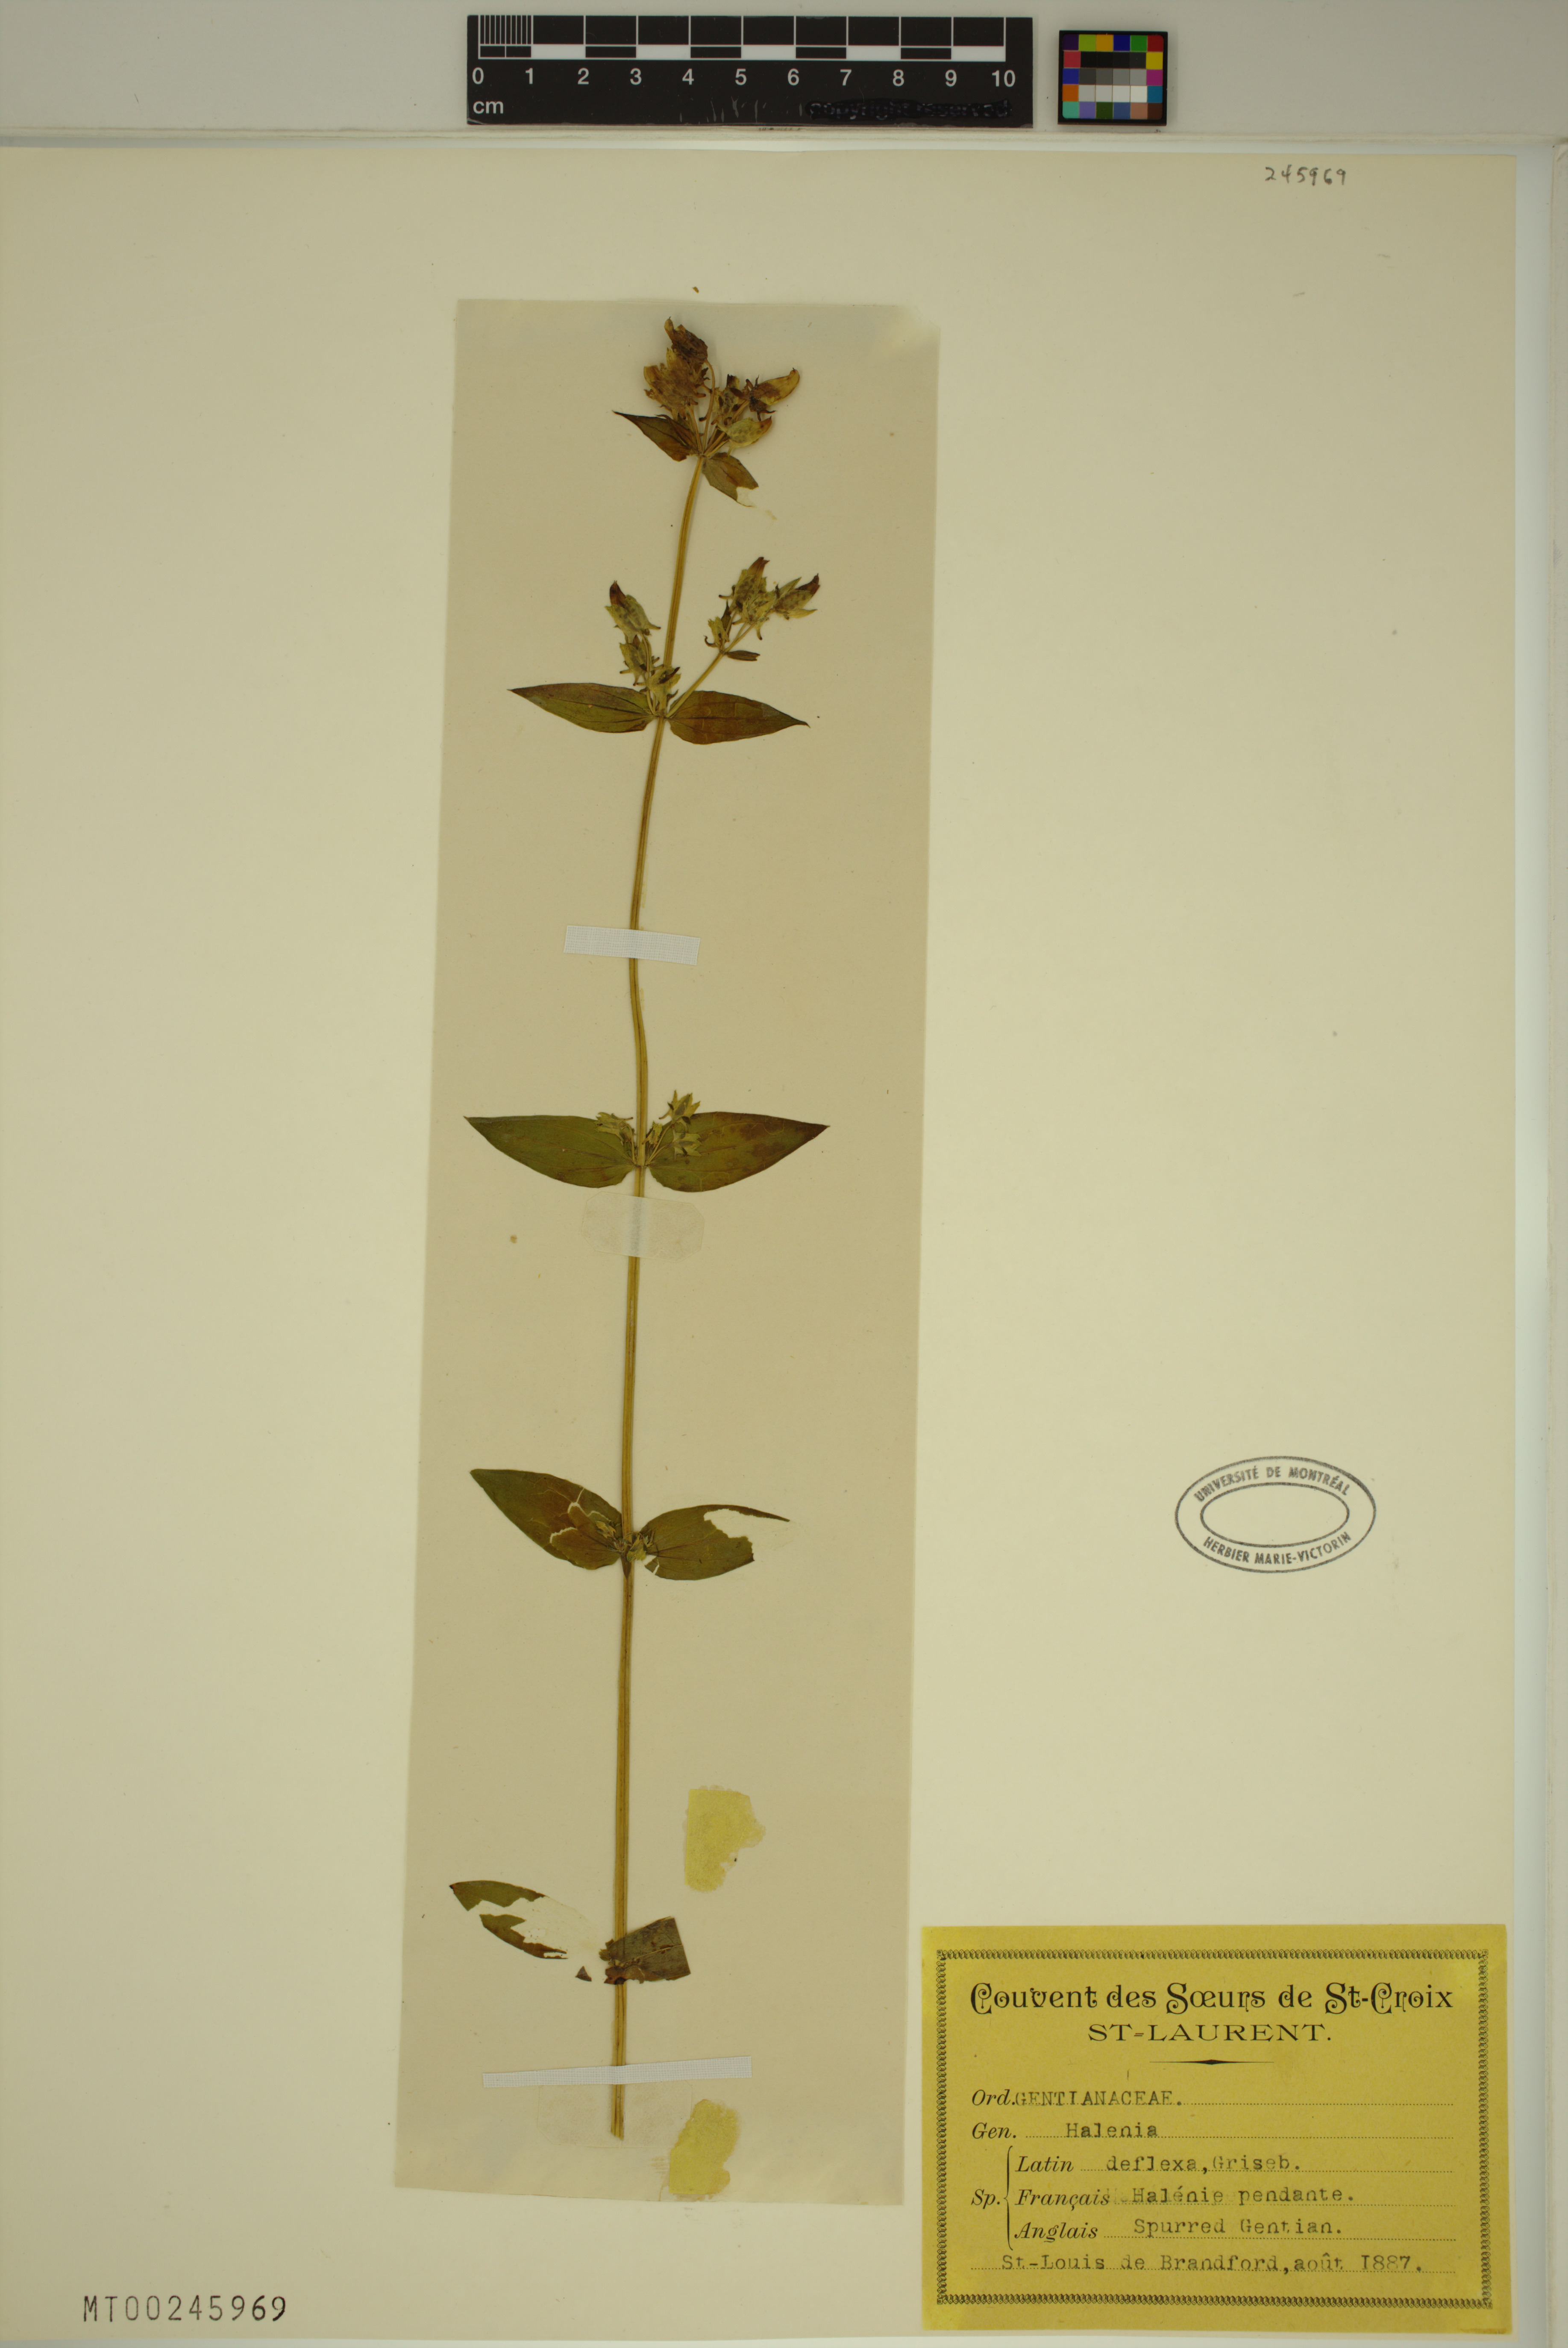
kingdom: Plantae
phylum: Tracheophyta
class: Magnoliopsida
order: Gentianales
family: Gentianaceae
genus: Halenia
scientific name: Halenia deflexa
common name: American spurred gentian
